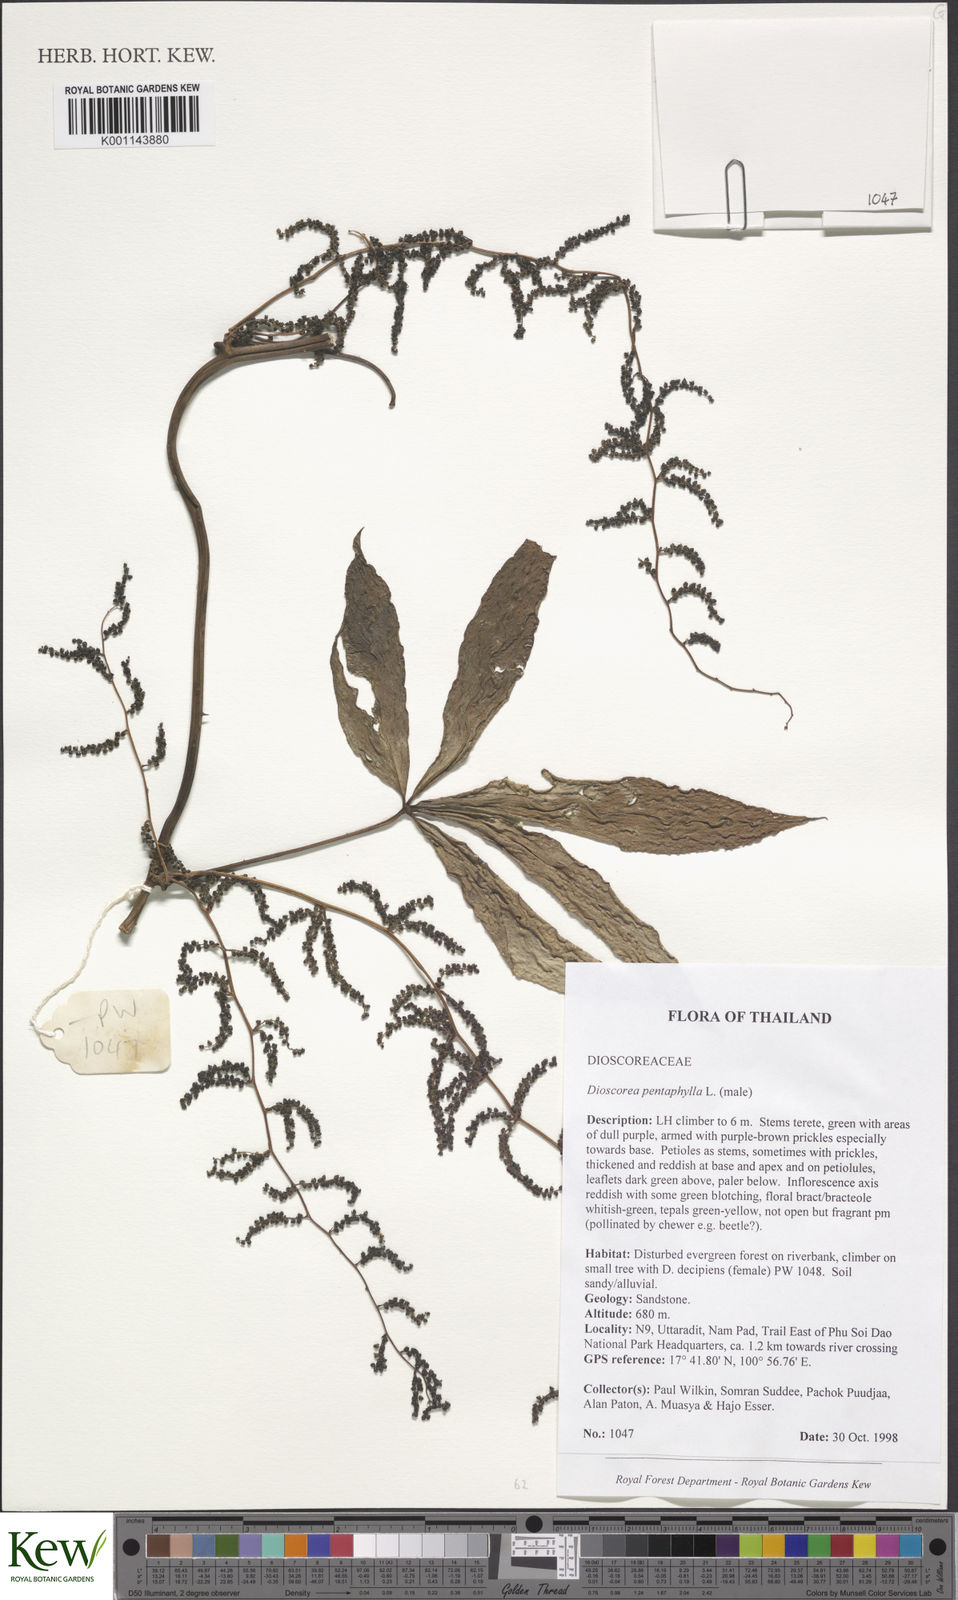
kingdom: Plantae
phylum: Tracheophyta
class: Liliopsida
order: Dioscoreales
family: Dioscoreaceae
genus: Dioscorea
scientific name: Dioscorea pentaphylla
